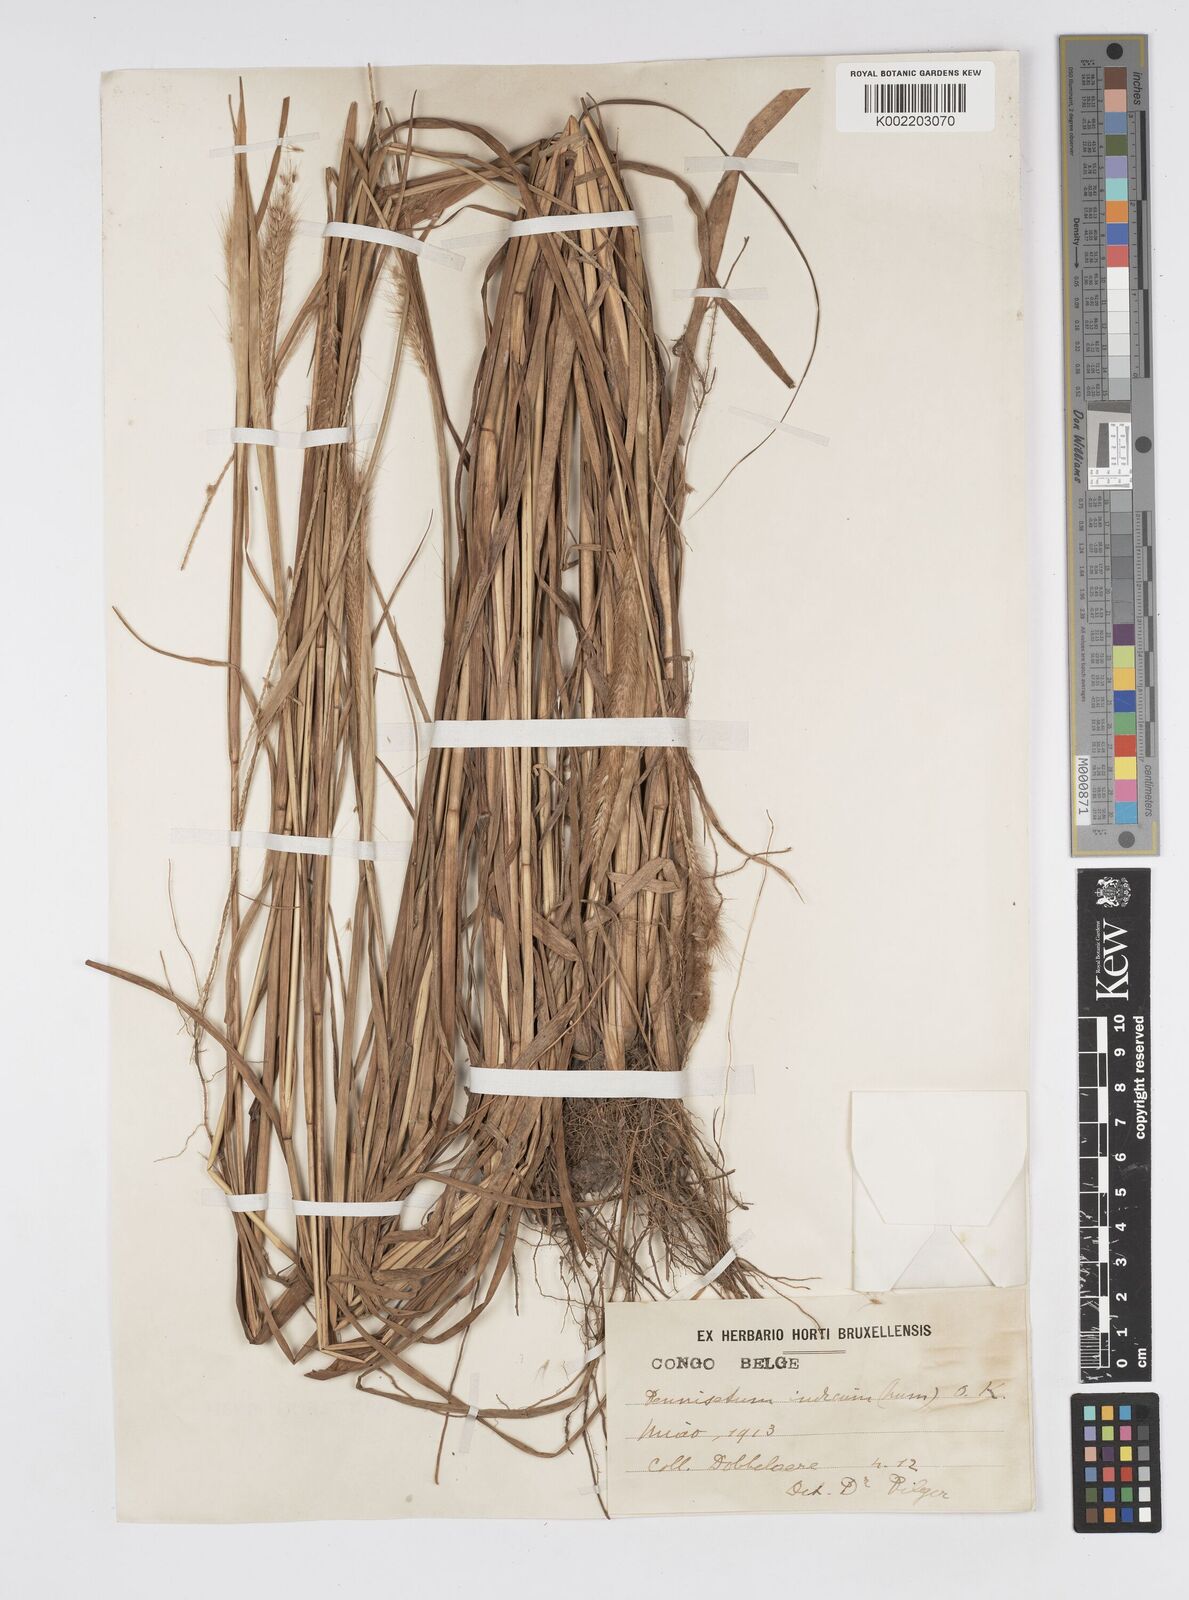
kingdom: Plantae
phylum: Tracheophyta
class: Liliopsida
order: Poales
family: Poaceae
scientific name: Poaceae
